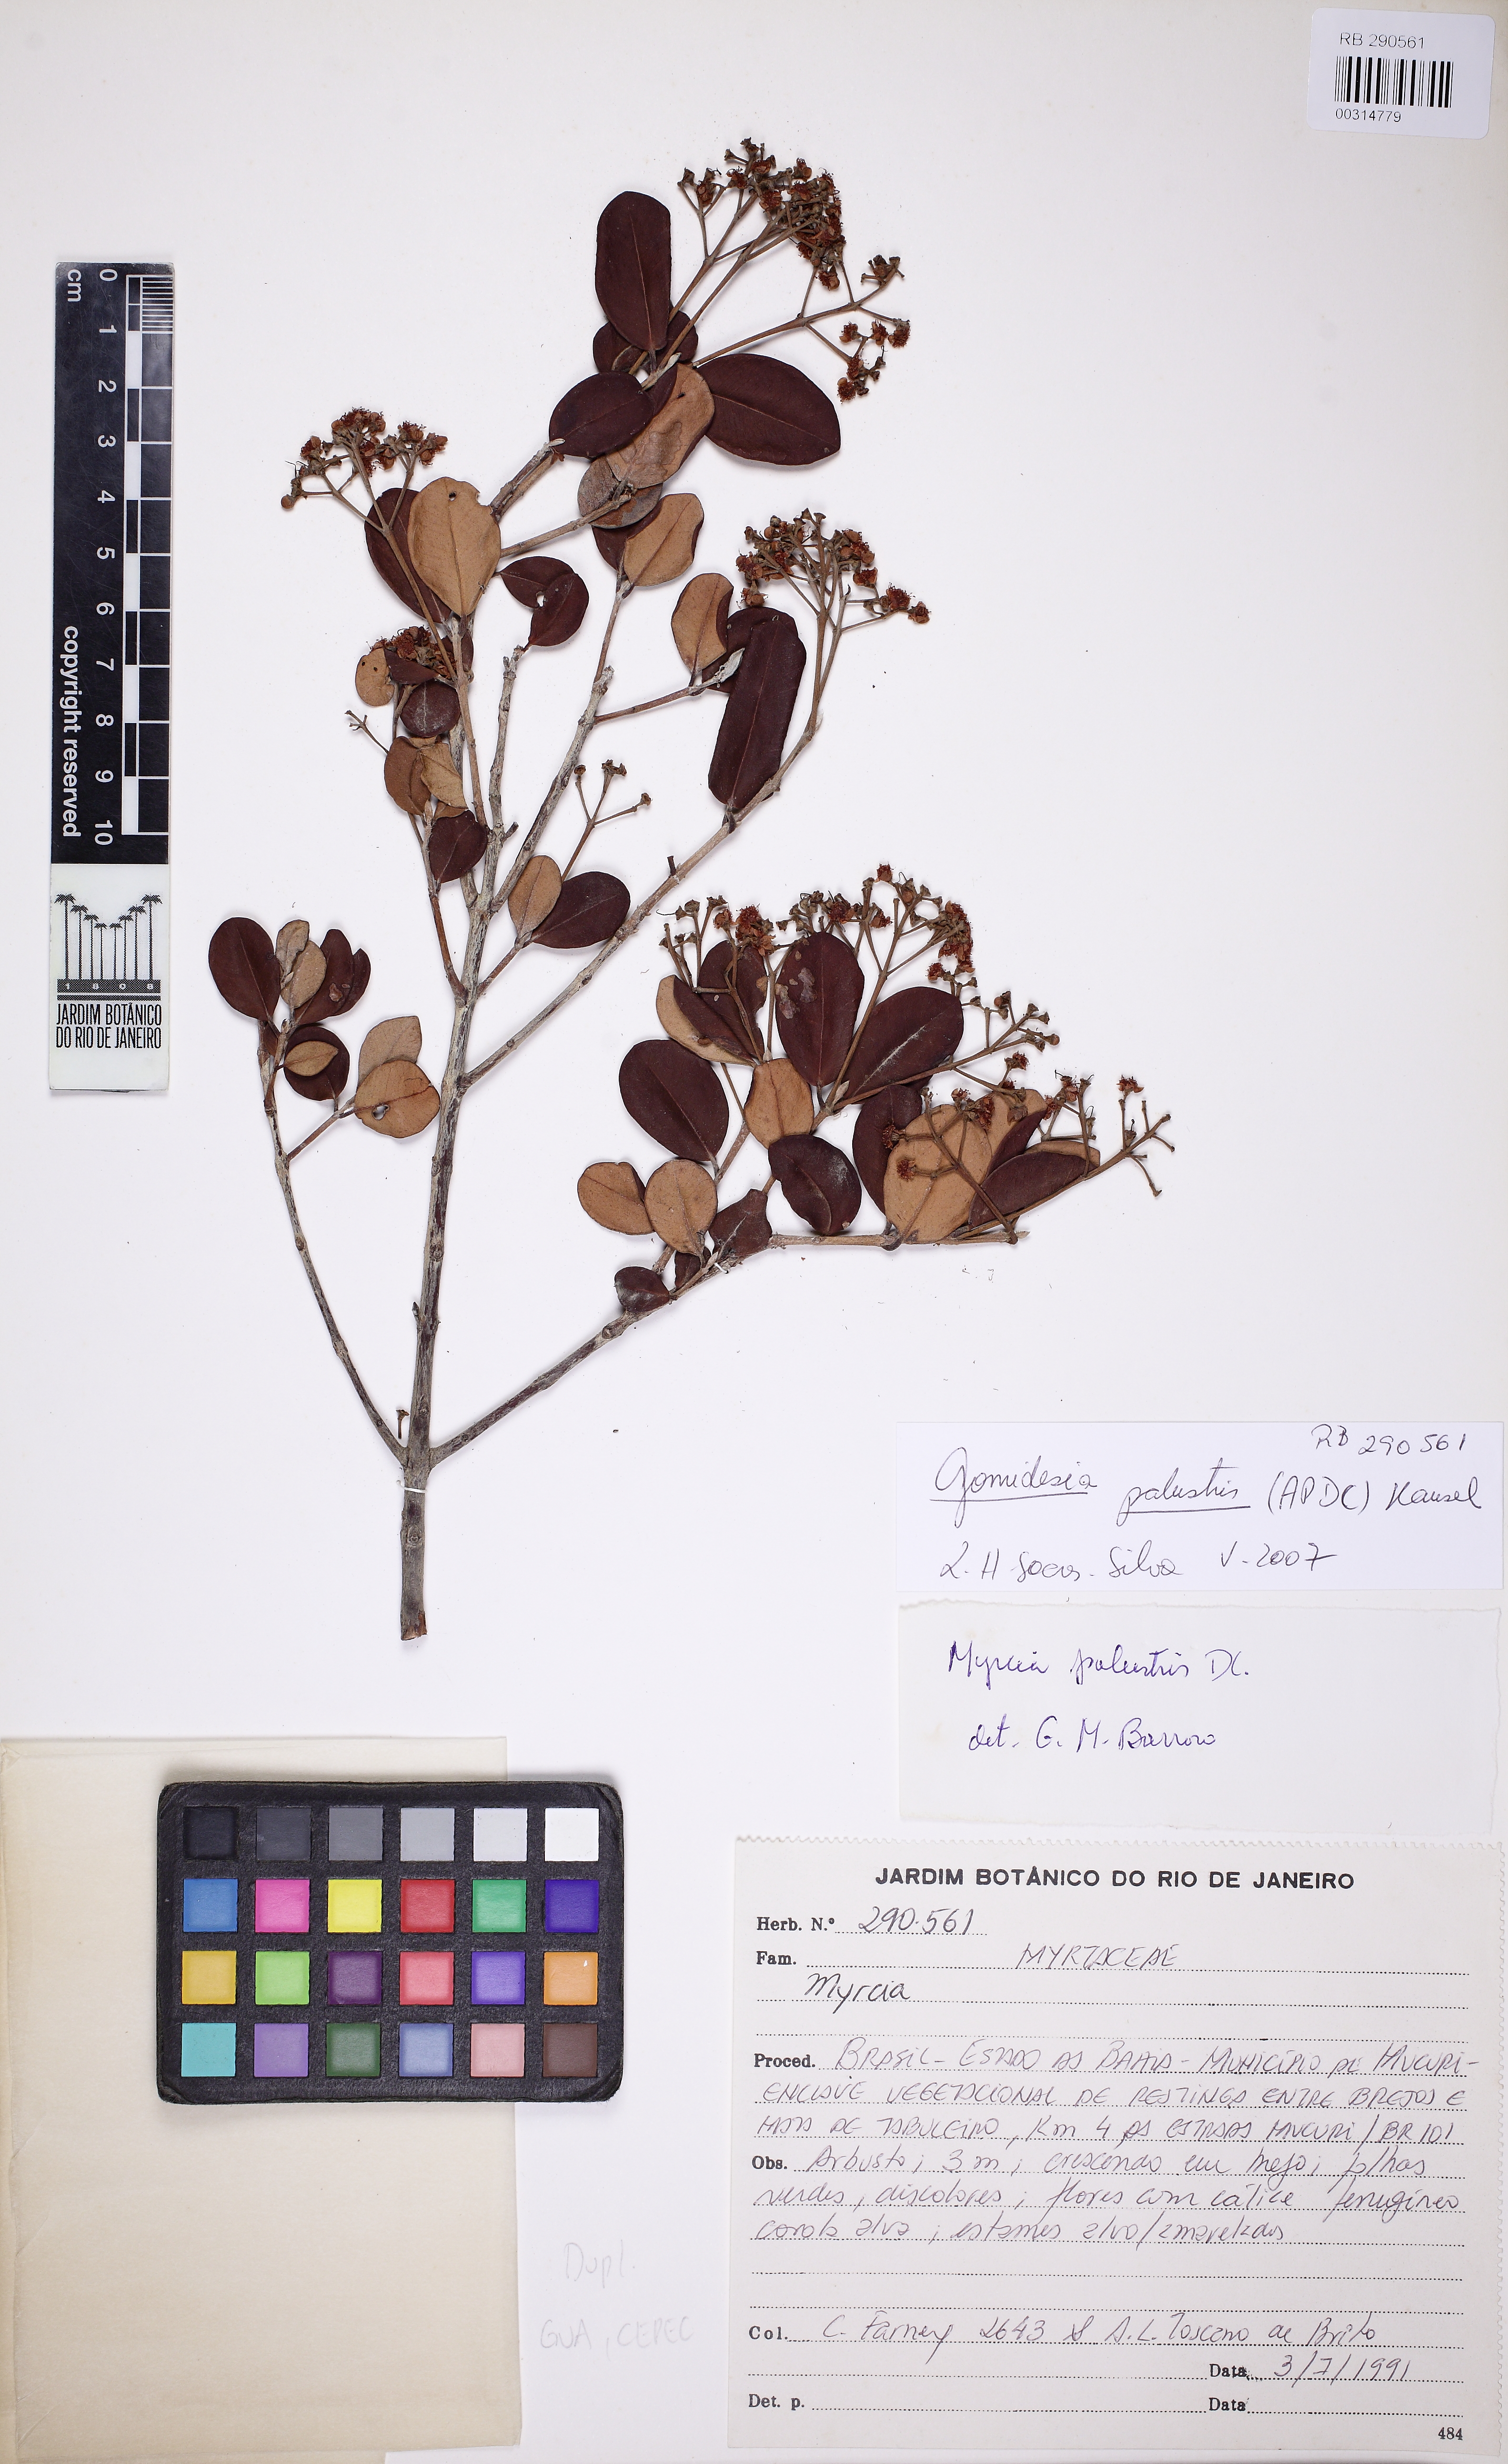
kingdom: Plantae
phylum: Tracheophyta
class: Magnoliopsida
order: Myrtales
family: Myrtaceae
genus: Myrcia
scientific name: Myrcia palustris
